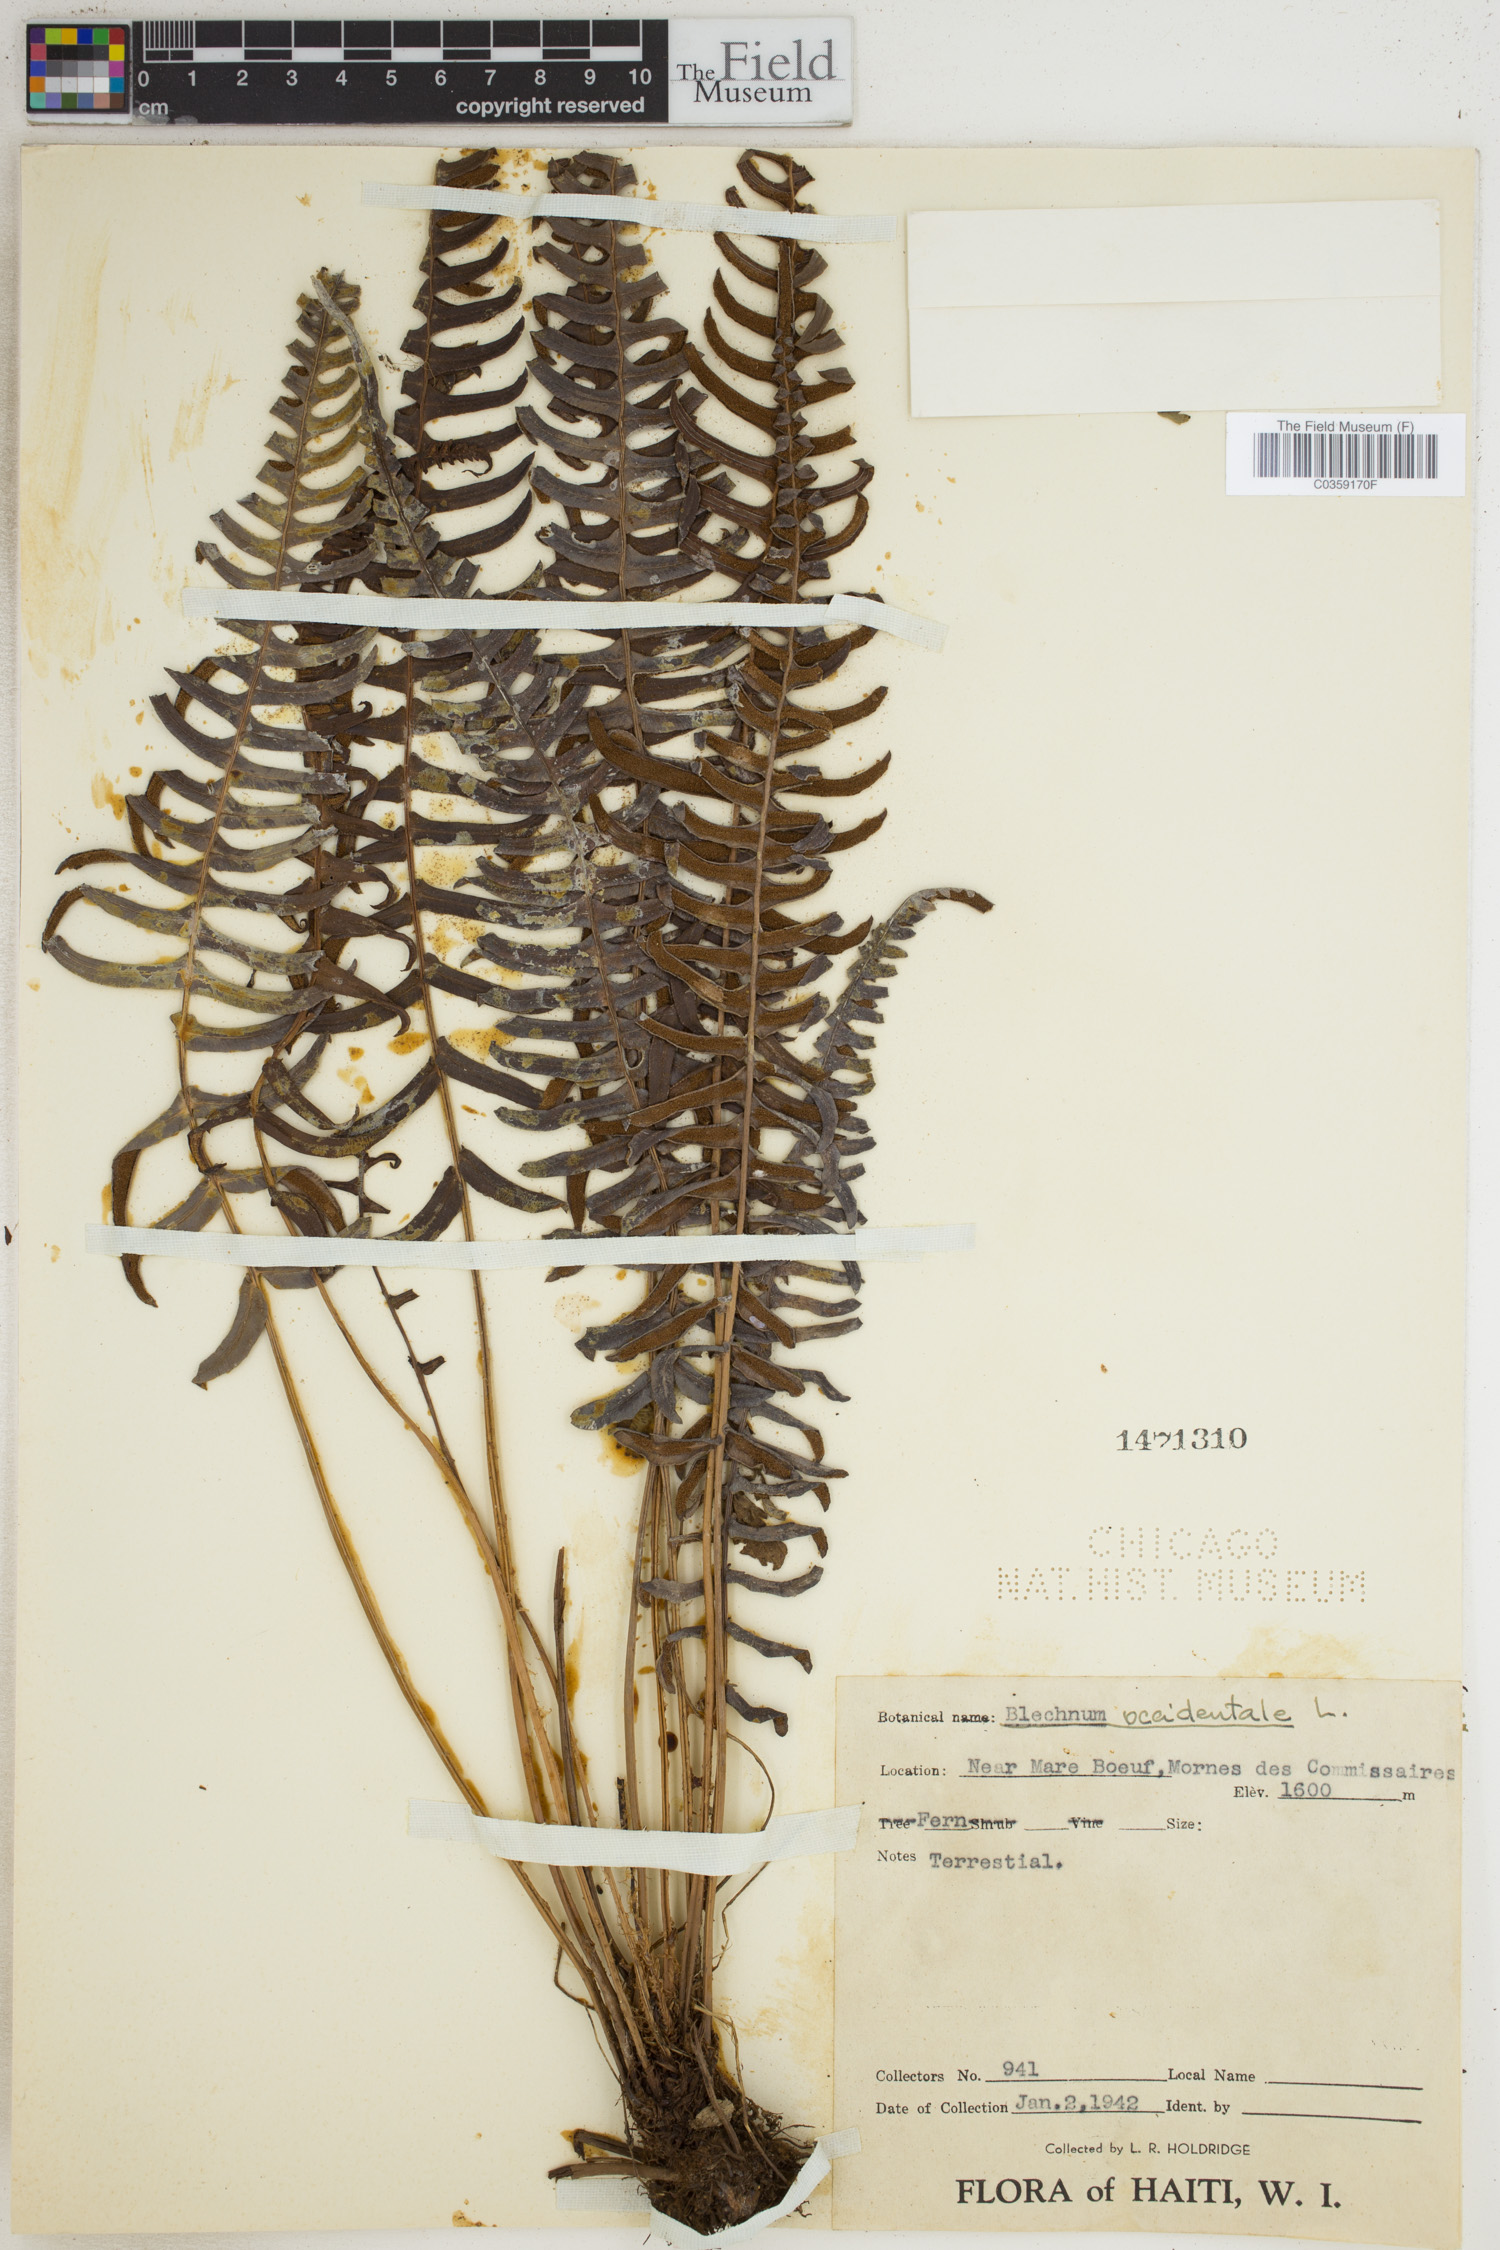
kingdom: Plantae
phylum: Tracheophyta
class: Polypodiopsida
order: Polypodiales
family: Blechnaceae
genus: Blechnum
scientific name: Blechnum occidentale
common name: Hammock fern
